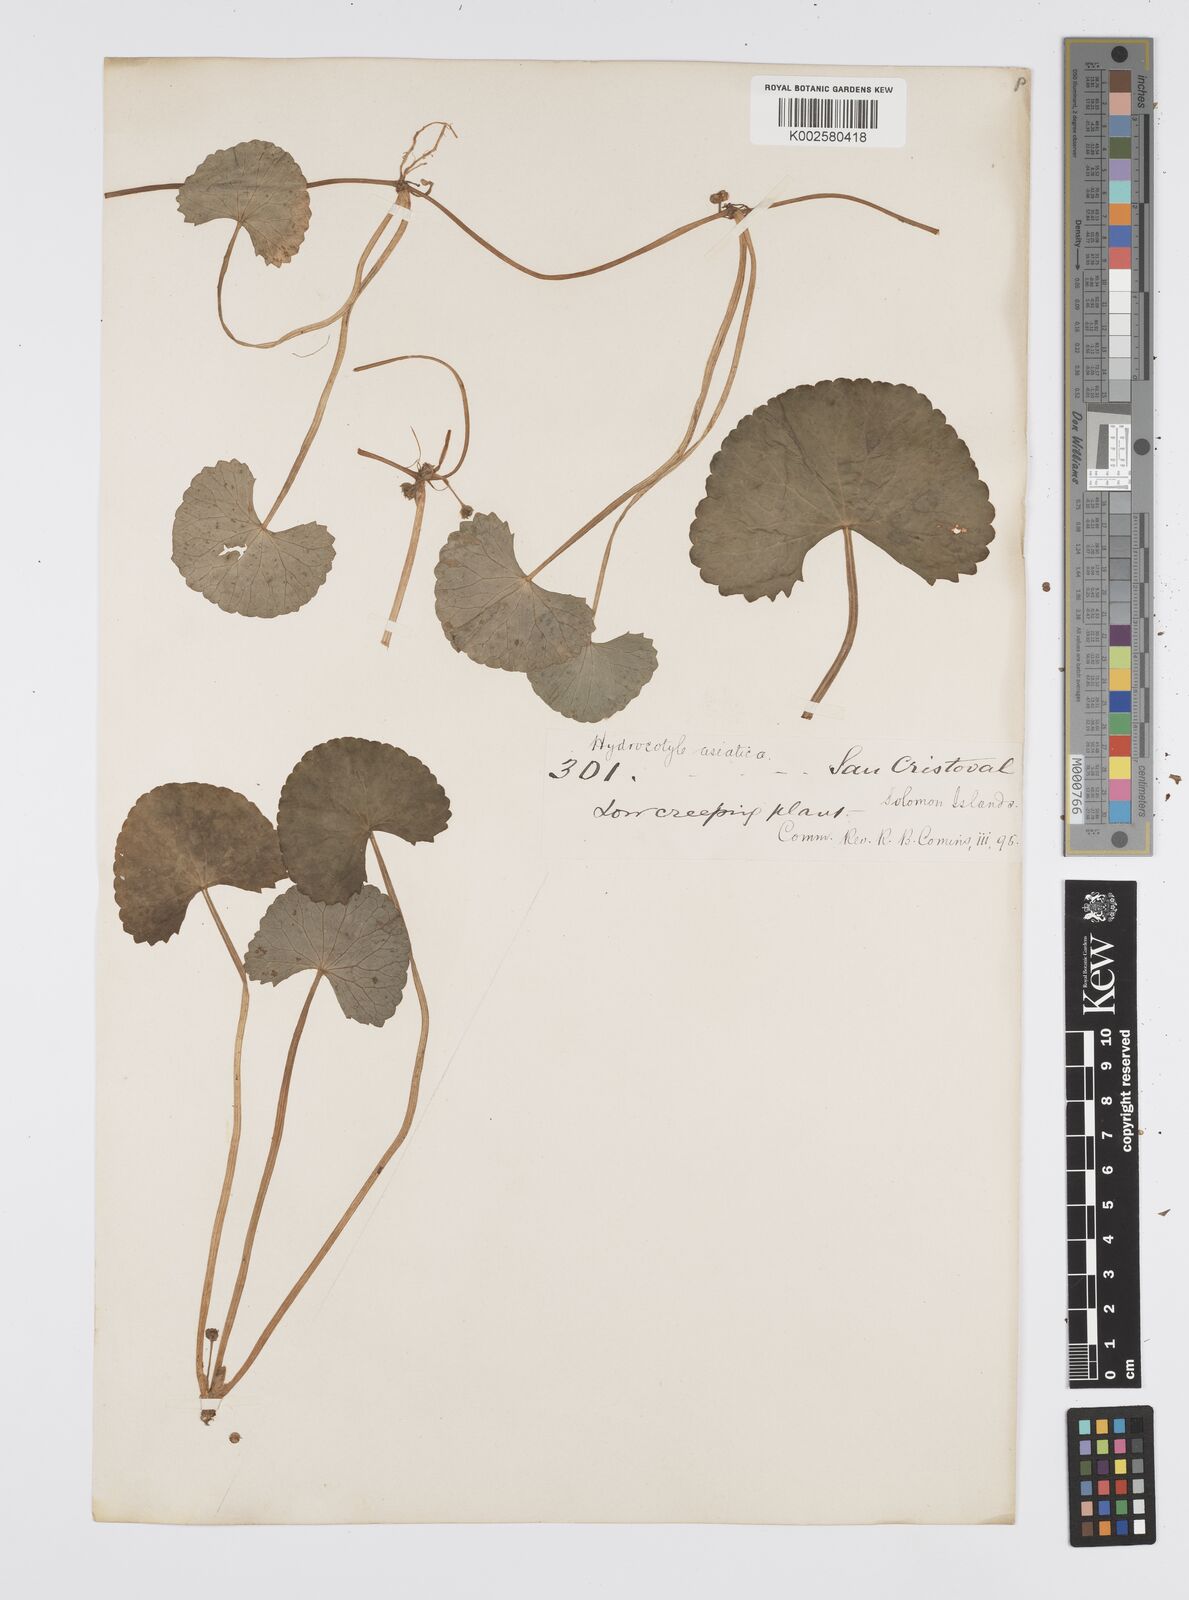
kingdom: Plantae
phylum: Tracheophyta
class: Magnoliopsida
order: Apiales
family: Apiaceae
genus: Centella
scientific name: Centella asiatica
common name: Spadeleaf
